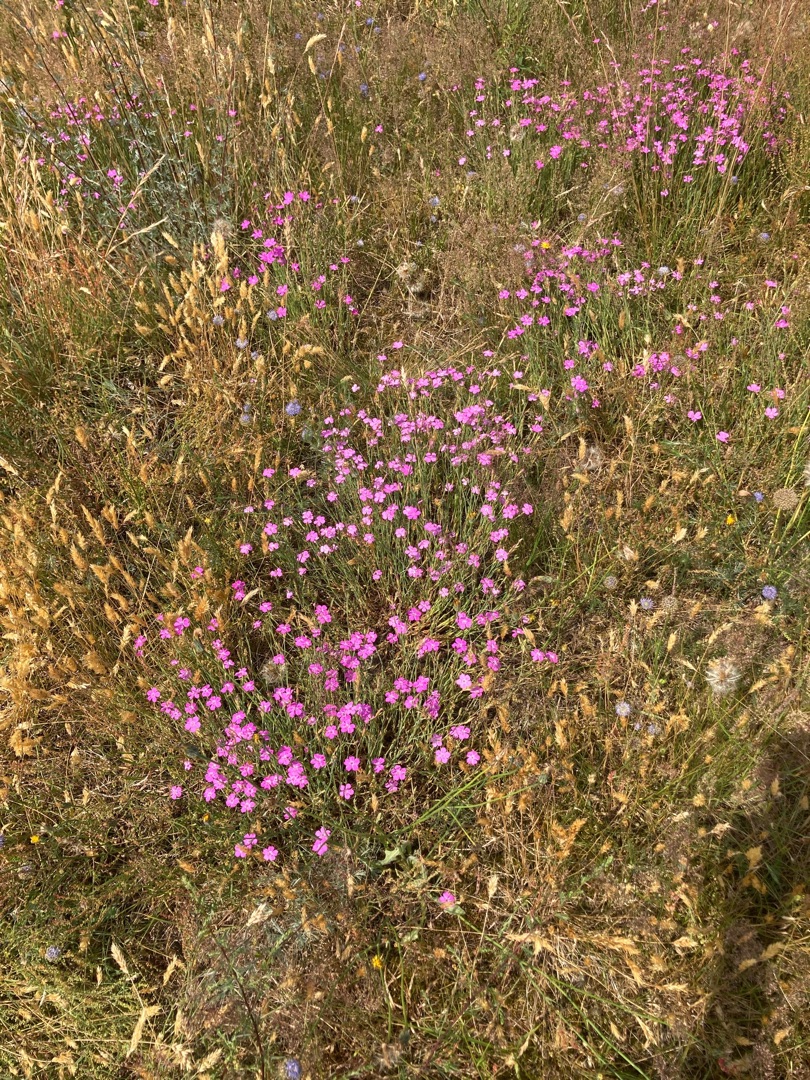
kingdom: Plantae
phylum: Tracheophyta
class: Magnoliopsida
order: Caryophyllales
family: Caryophyllaceae
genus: Dianthus
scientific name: Dianthus deltoides
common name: Bakke-nellike
